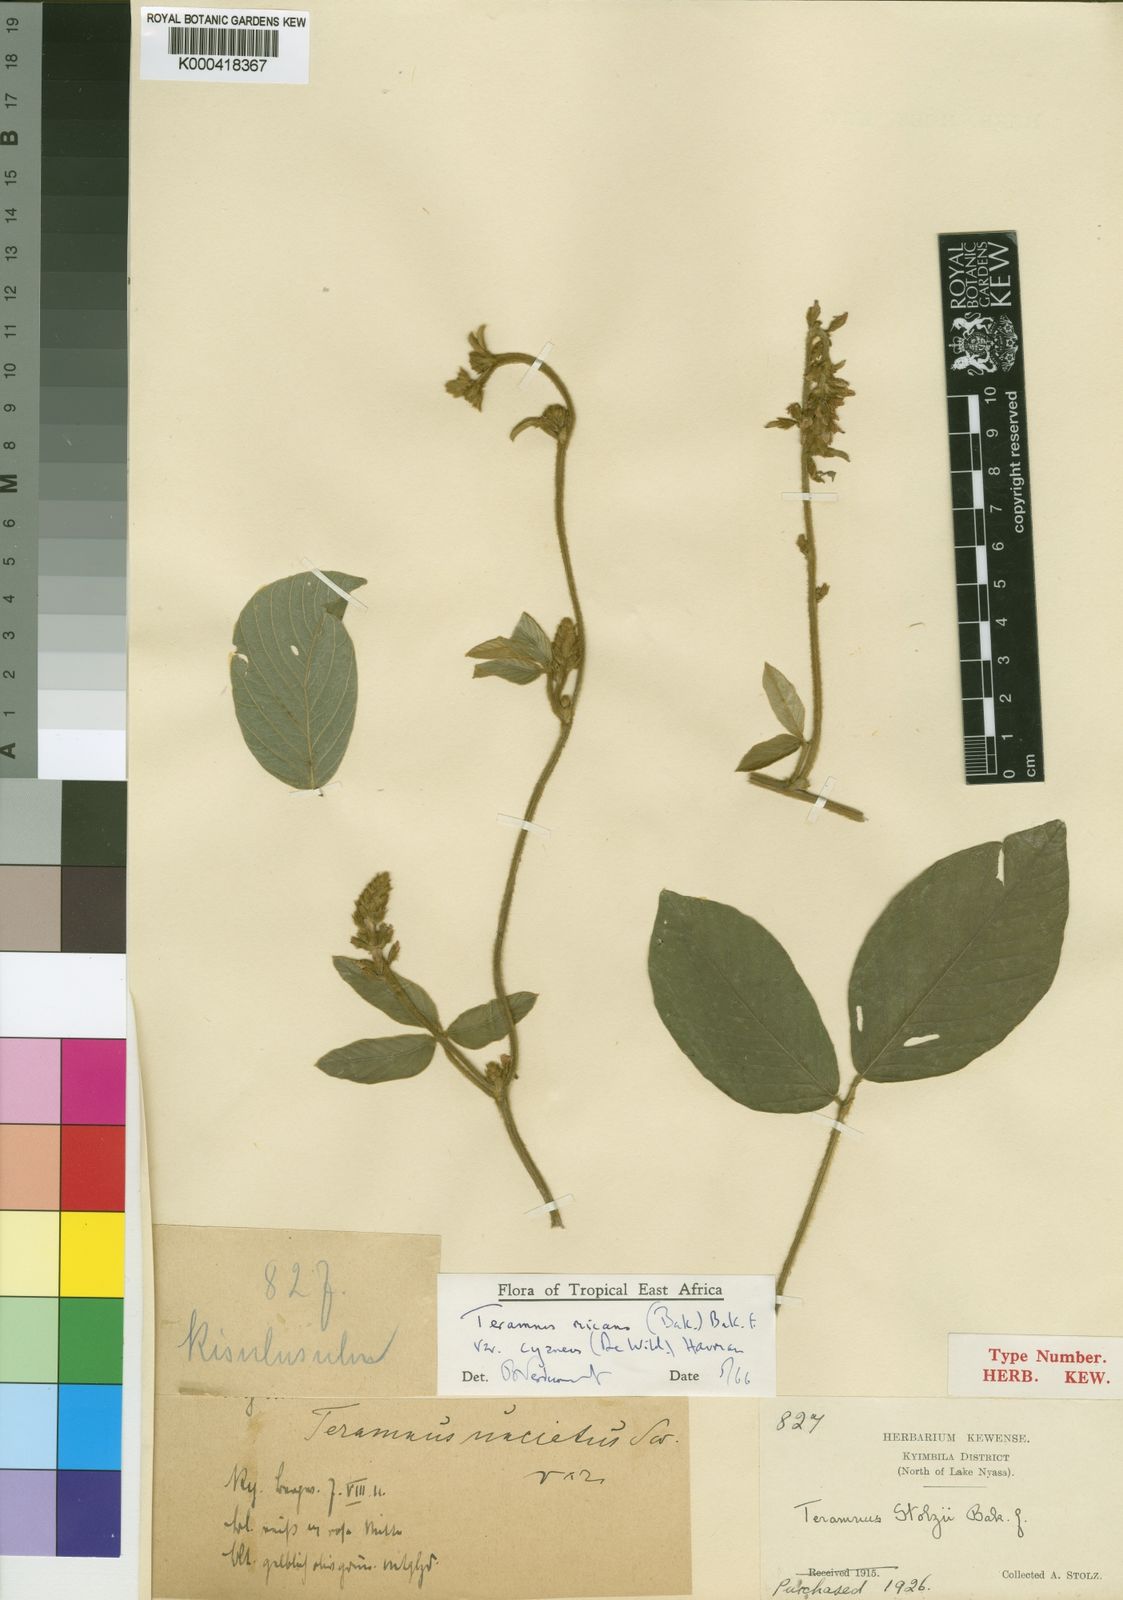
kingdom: Plantae
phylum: Tracheophyta
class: Magnoliopsida
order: Fabales
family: Fabaceae
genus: Teramnus
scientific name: Teramnus micans
